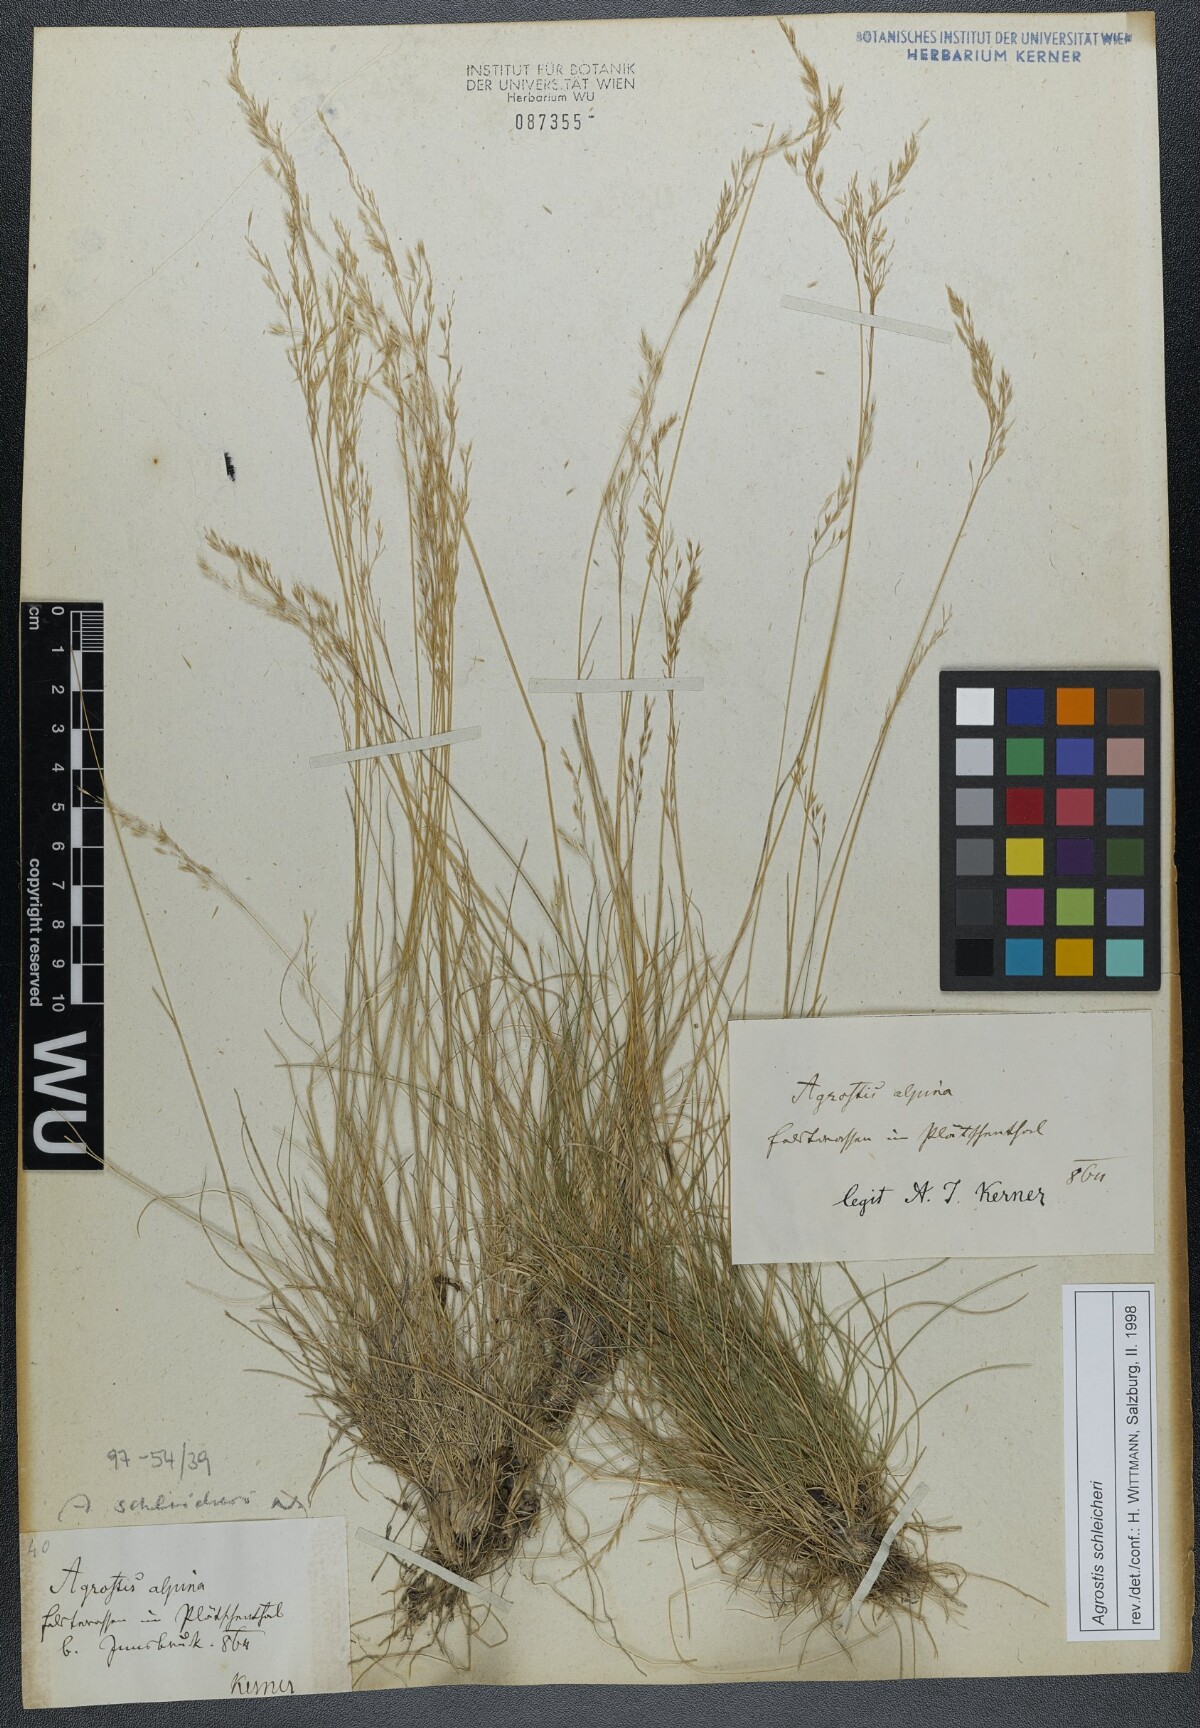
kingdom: Plantae
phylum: Tracheophyta
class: Liliopsida
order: Poales
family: Poaceae
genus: Alpagrostis
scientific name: Alpagrostis schleicheri
